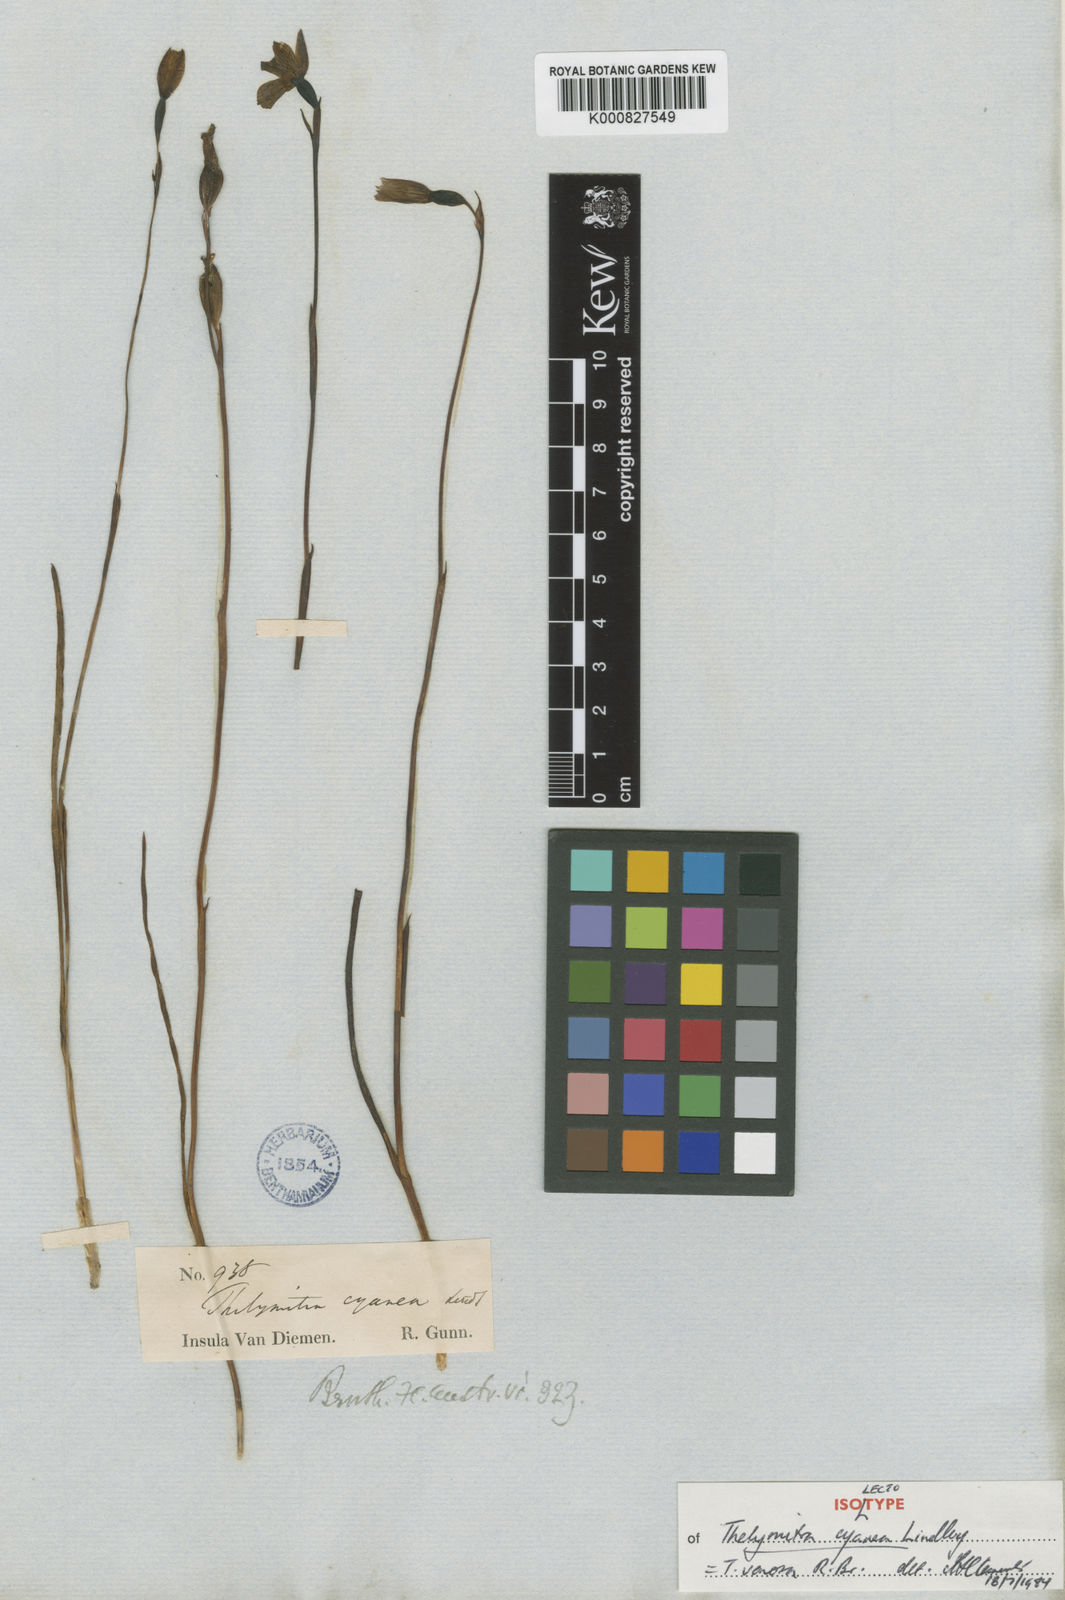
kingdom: Plantae
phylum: Tracheophyta
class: Liliopsida
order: Asparagales
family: Orchidaceae
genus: Thelymitra
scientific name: Thelymitra venosa
